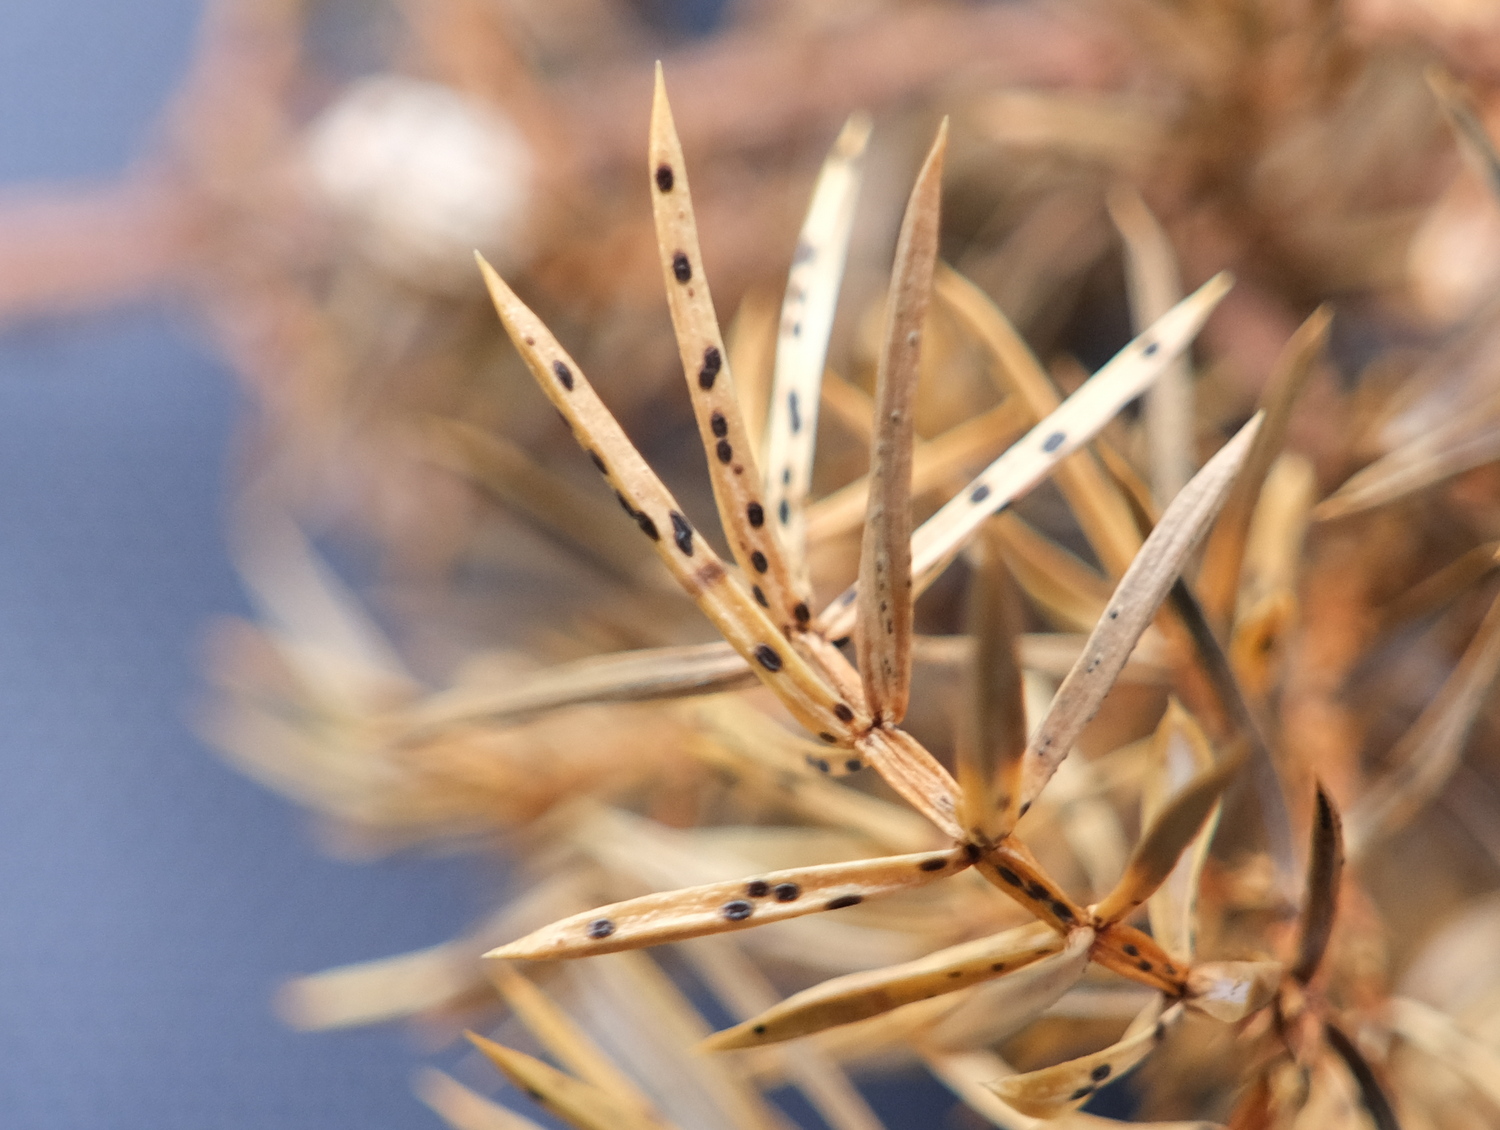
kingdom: Fungi
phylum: Ascomycota
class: Leotiomycetes
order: Rhytismatales
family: Rhytismataceae
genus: Lophodermium
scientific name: Lophodermium juniperinum
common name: ene-fureplet
